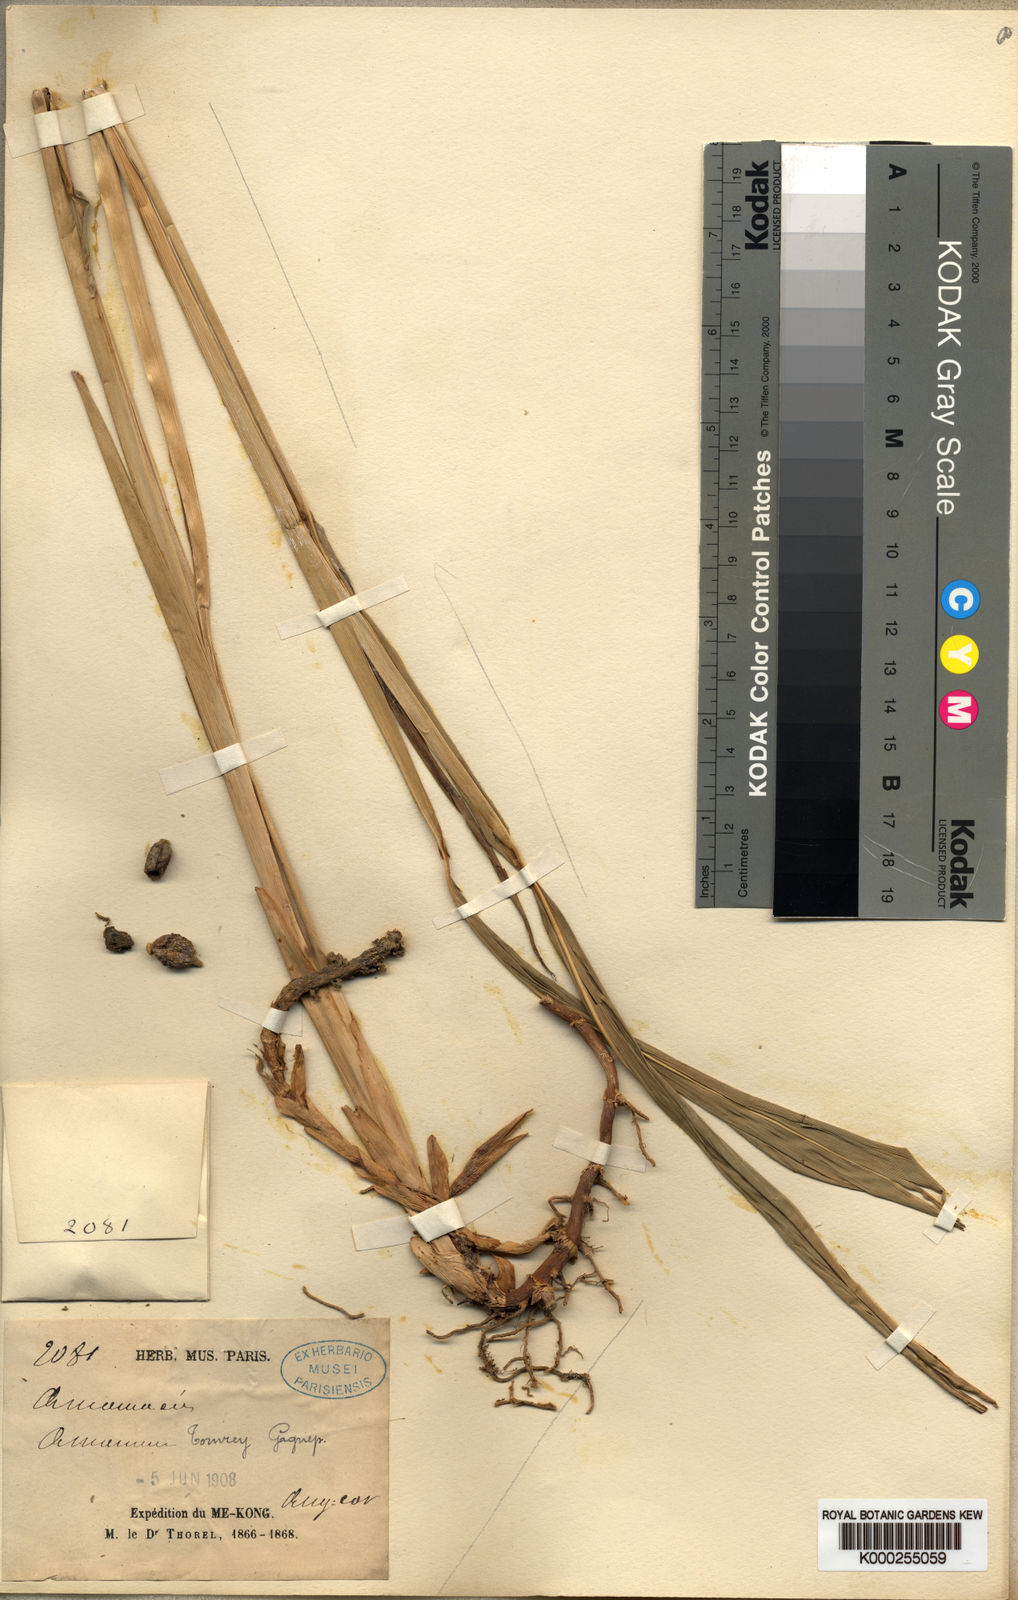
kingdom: Plantae
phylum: Tracheophyta
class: Liliopsida
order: Zingiberales
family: Zingiberaceae
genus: Meistera
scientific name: Meistera tomrey
